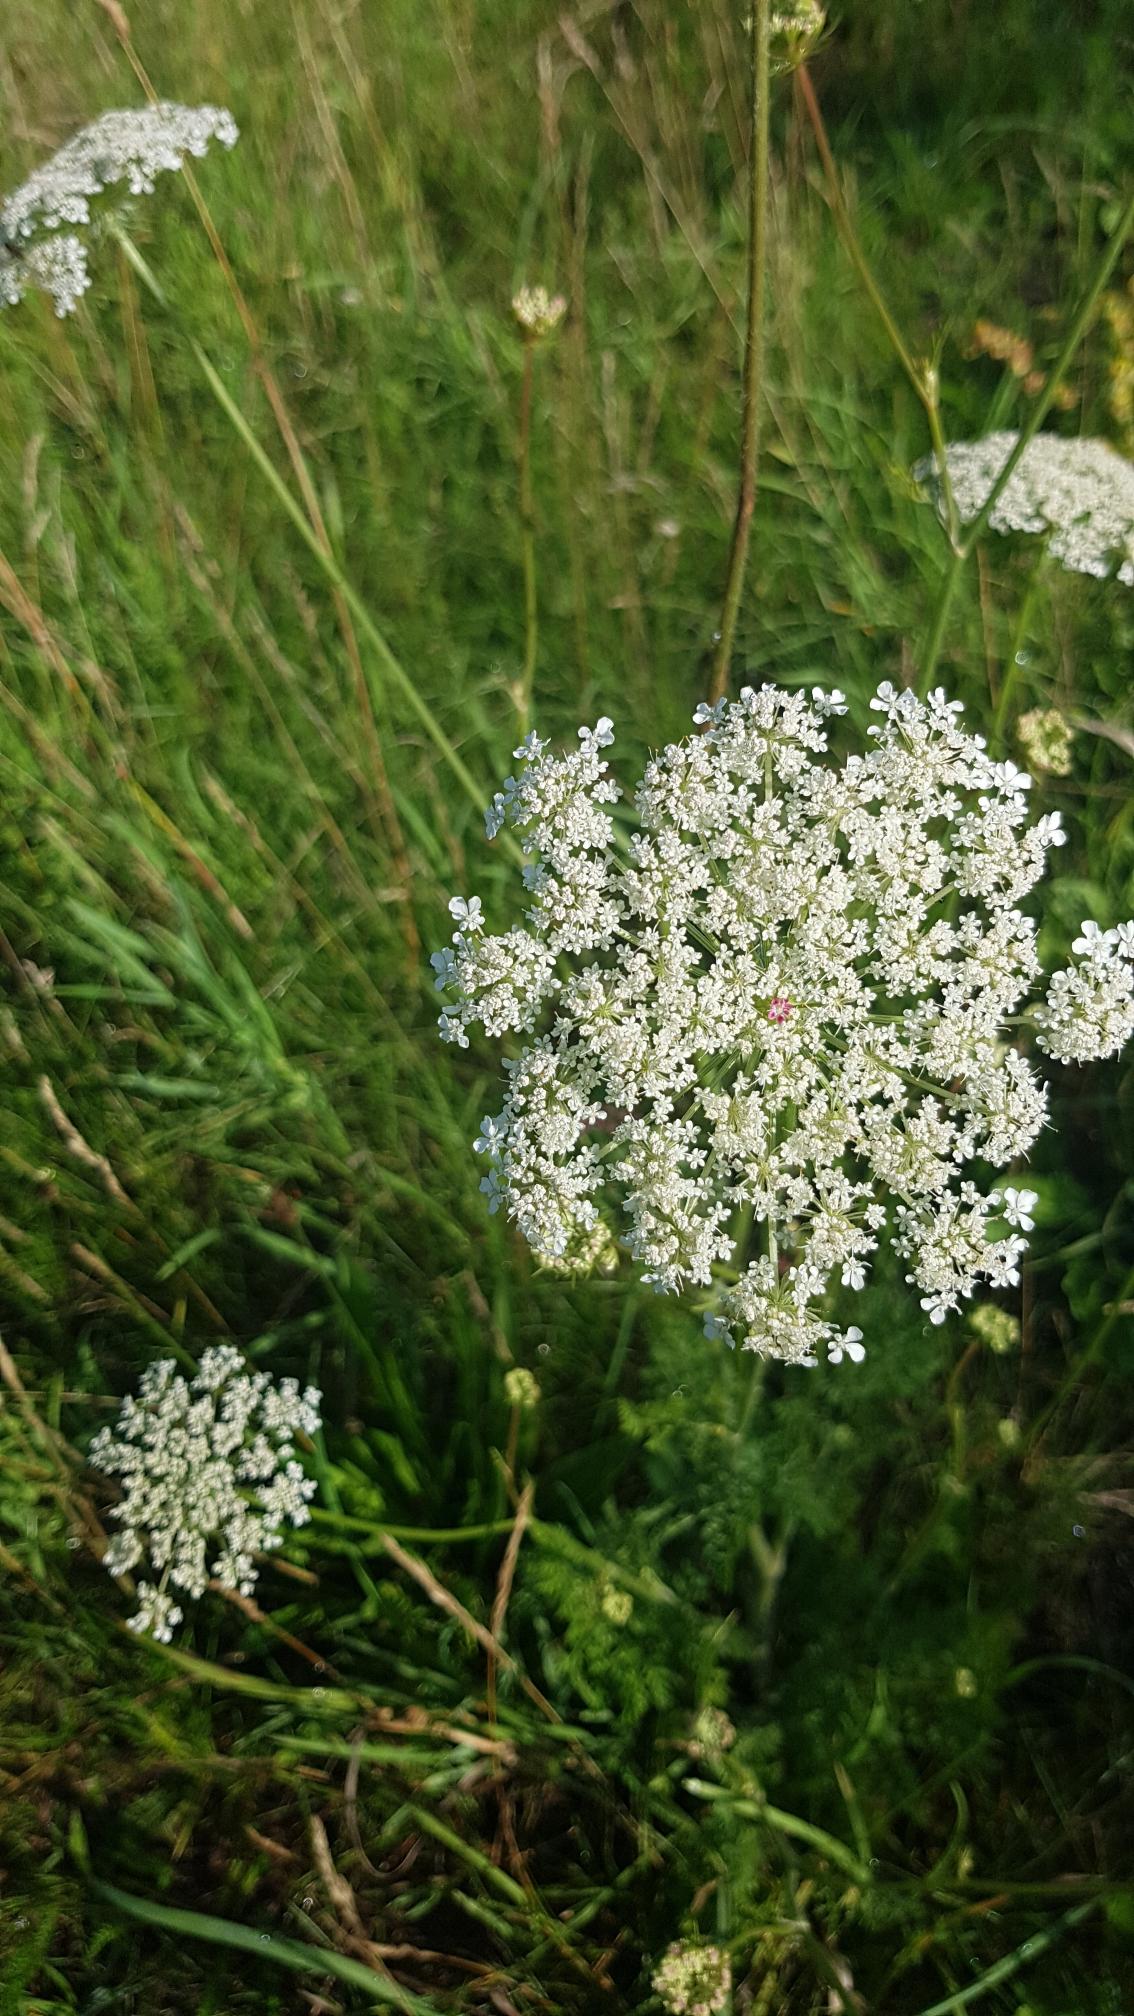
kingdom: Plantae
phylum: Tracheophyta
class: Magnoliopsida
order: Apiales
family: Apiaceae
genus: Daucus
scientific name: Daucus carota
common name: Gulerod
